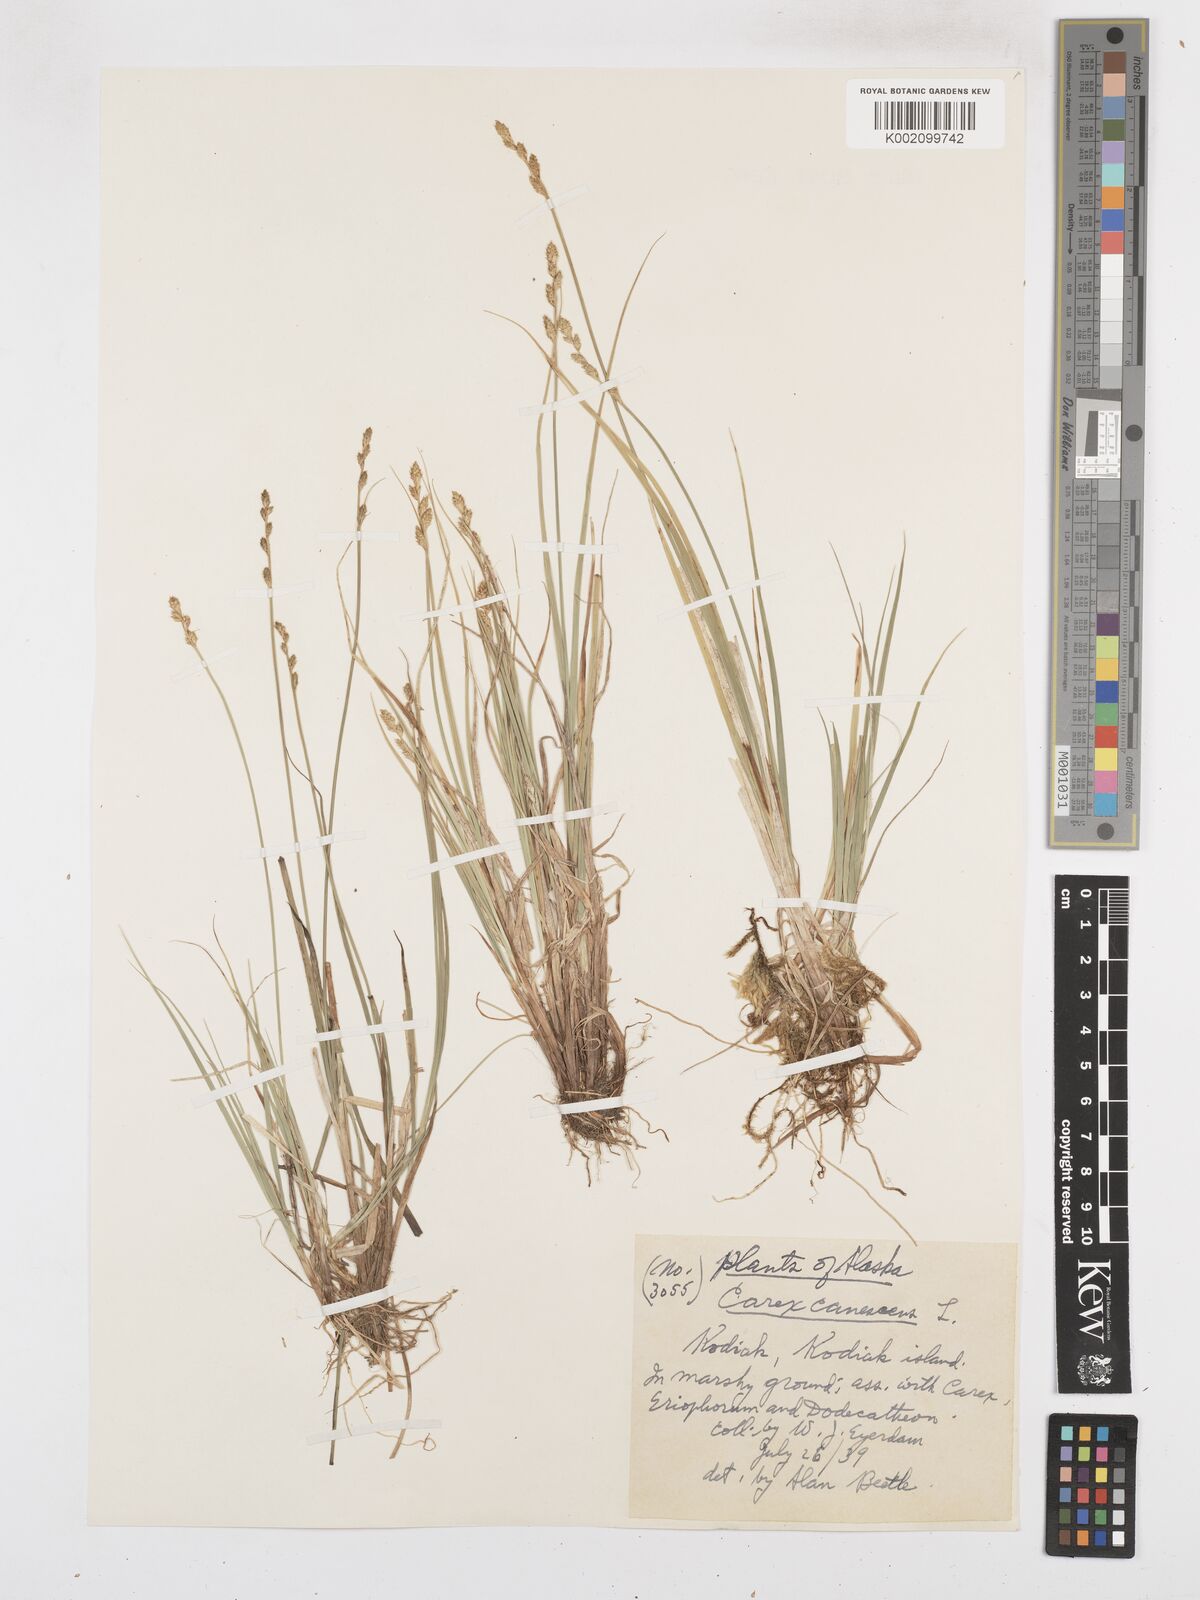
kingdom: Plantae
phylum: Tracheophyta
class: Liliopsida
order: Poales
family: Cyperaceae
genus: Carex
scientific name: Carex curta
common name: White sedge
